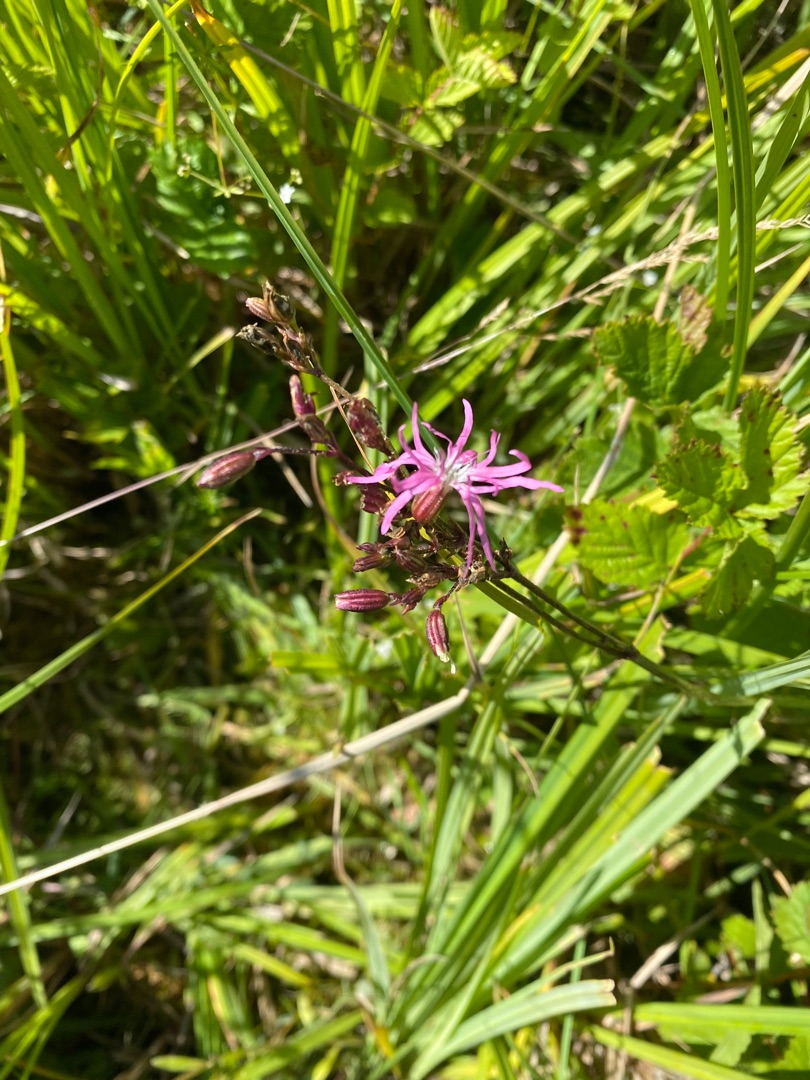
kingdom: Plantae
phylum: Tracheophyta
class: Magnoliopsida
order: Caryophyllales
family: Caryophyllaceae
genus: Silene
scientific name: Silene flos-cuculi
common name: Trævlekrone
